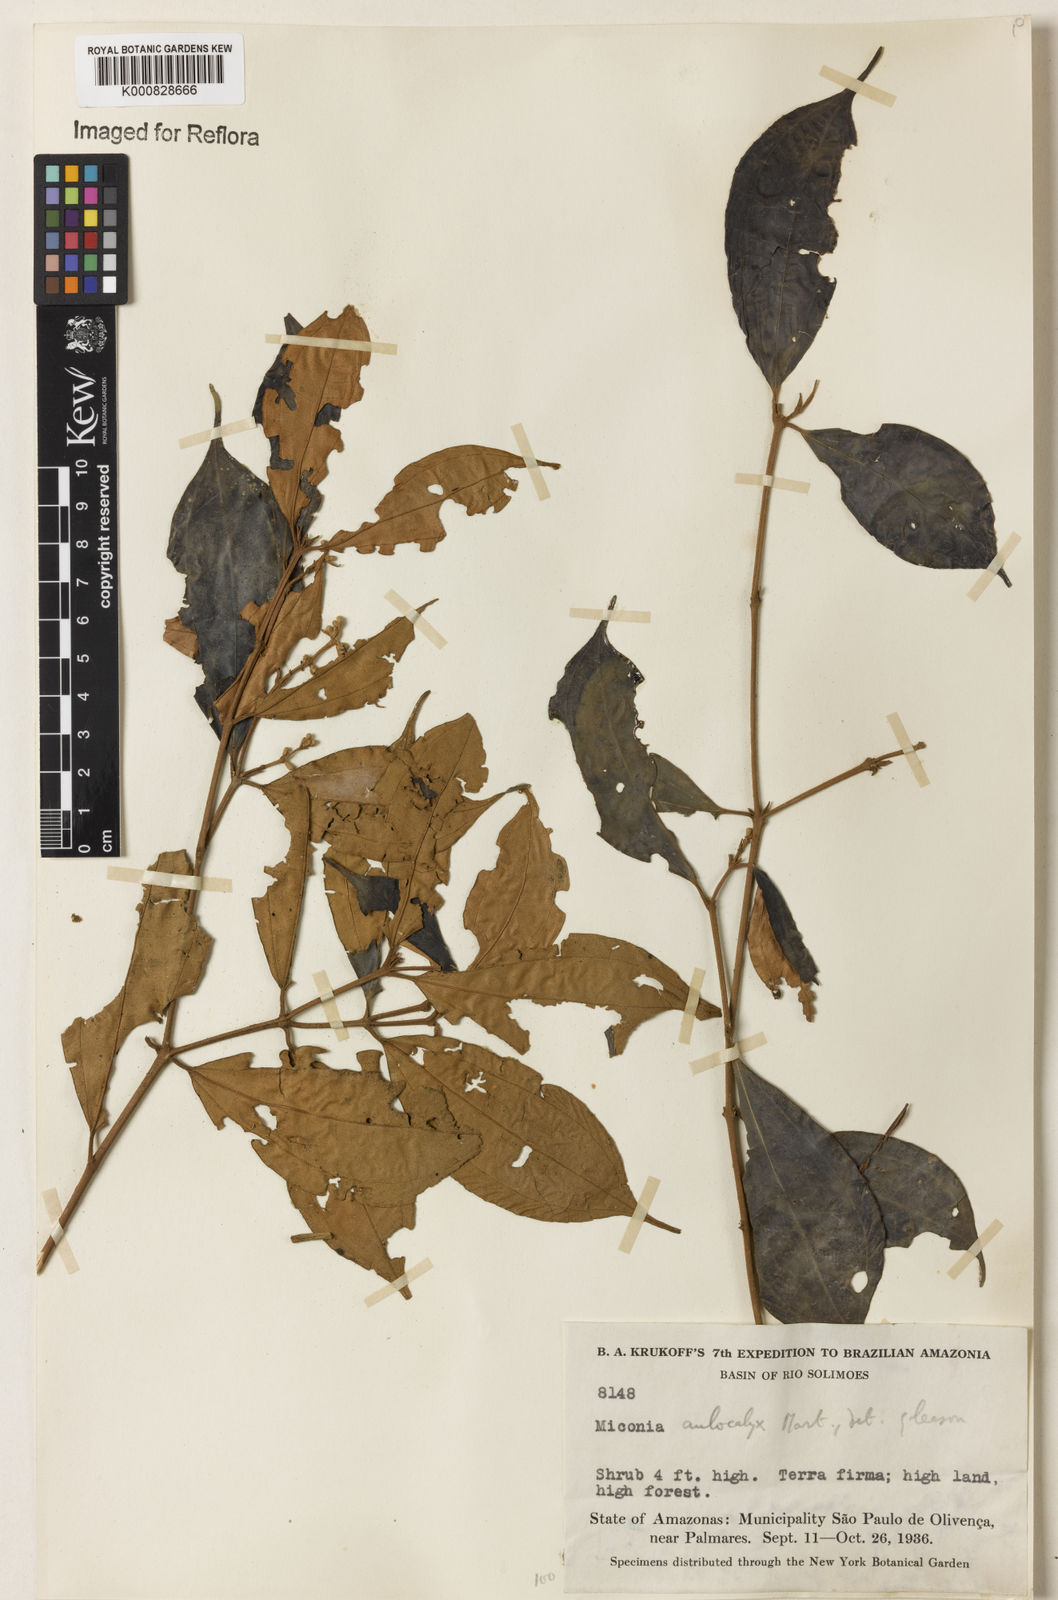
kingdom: Plantae
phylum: Tracheophyta
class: Magnoliopsida
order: Myrtales
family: Melastomataceae
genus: Miconia
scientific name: Miconia aulocalyx
